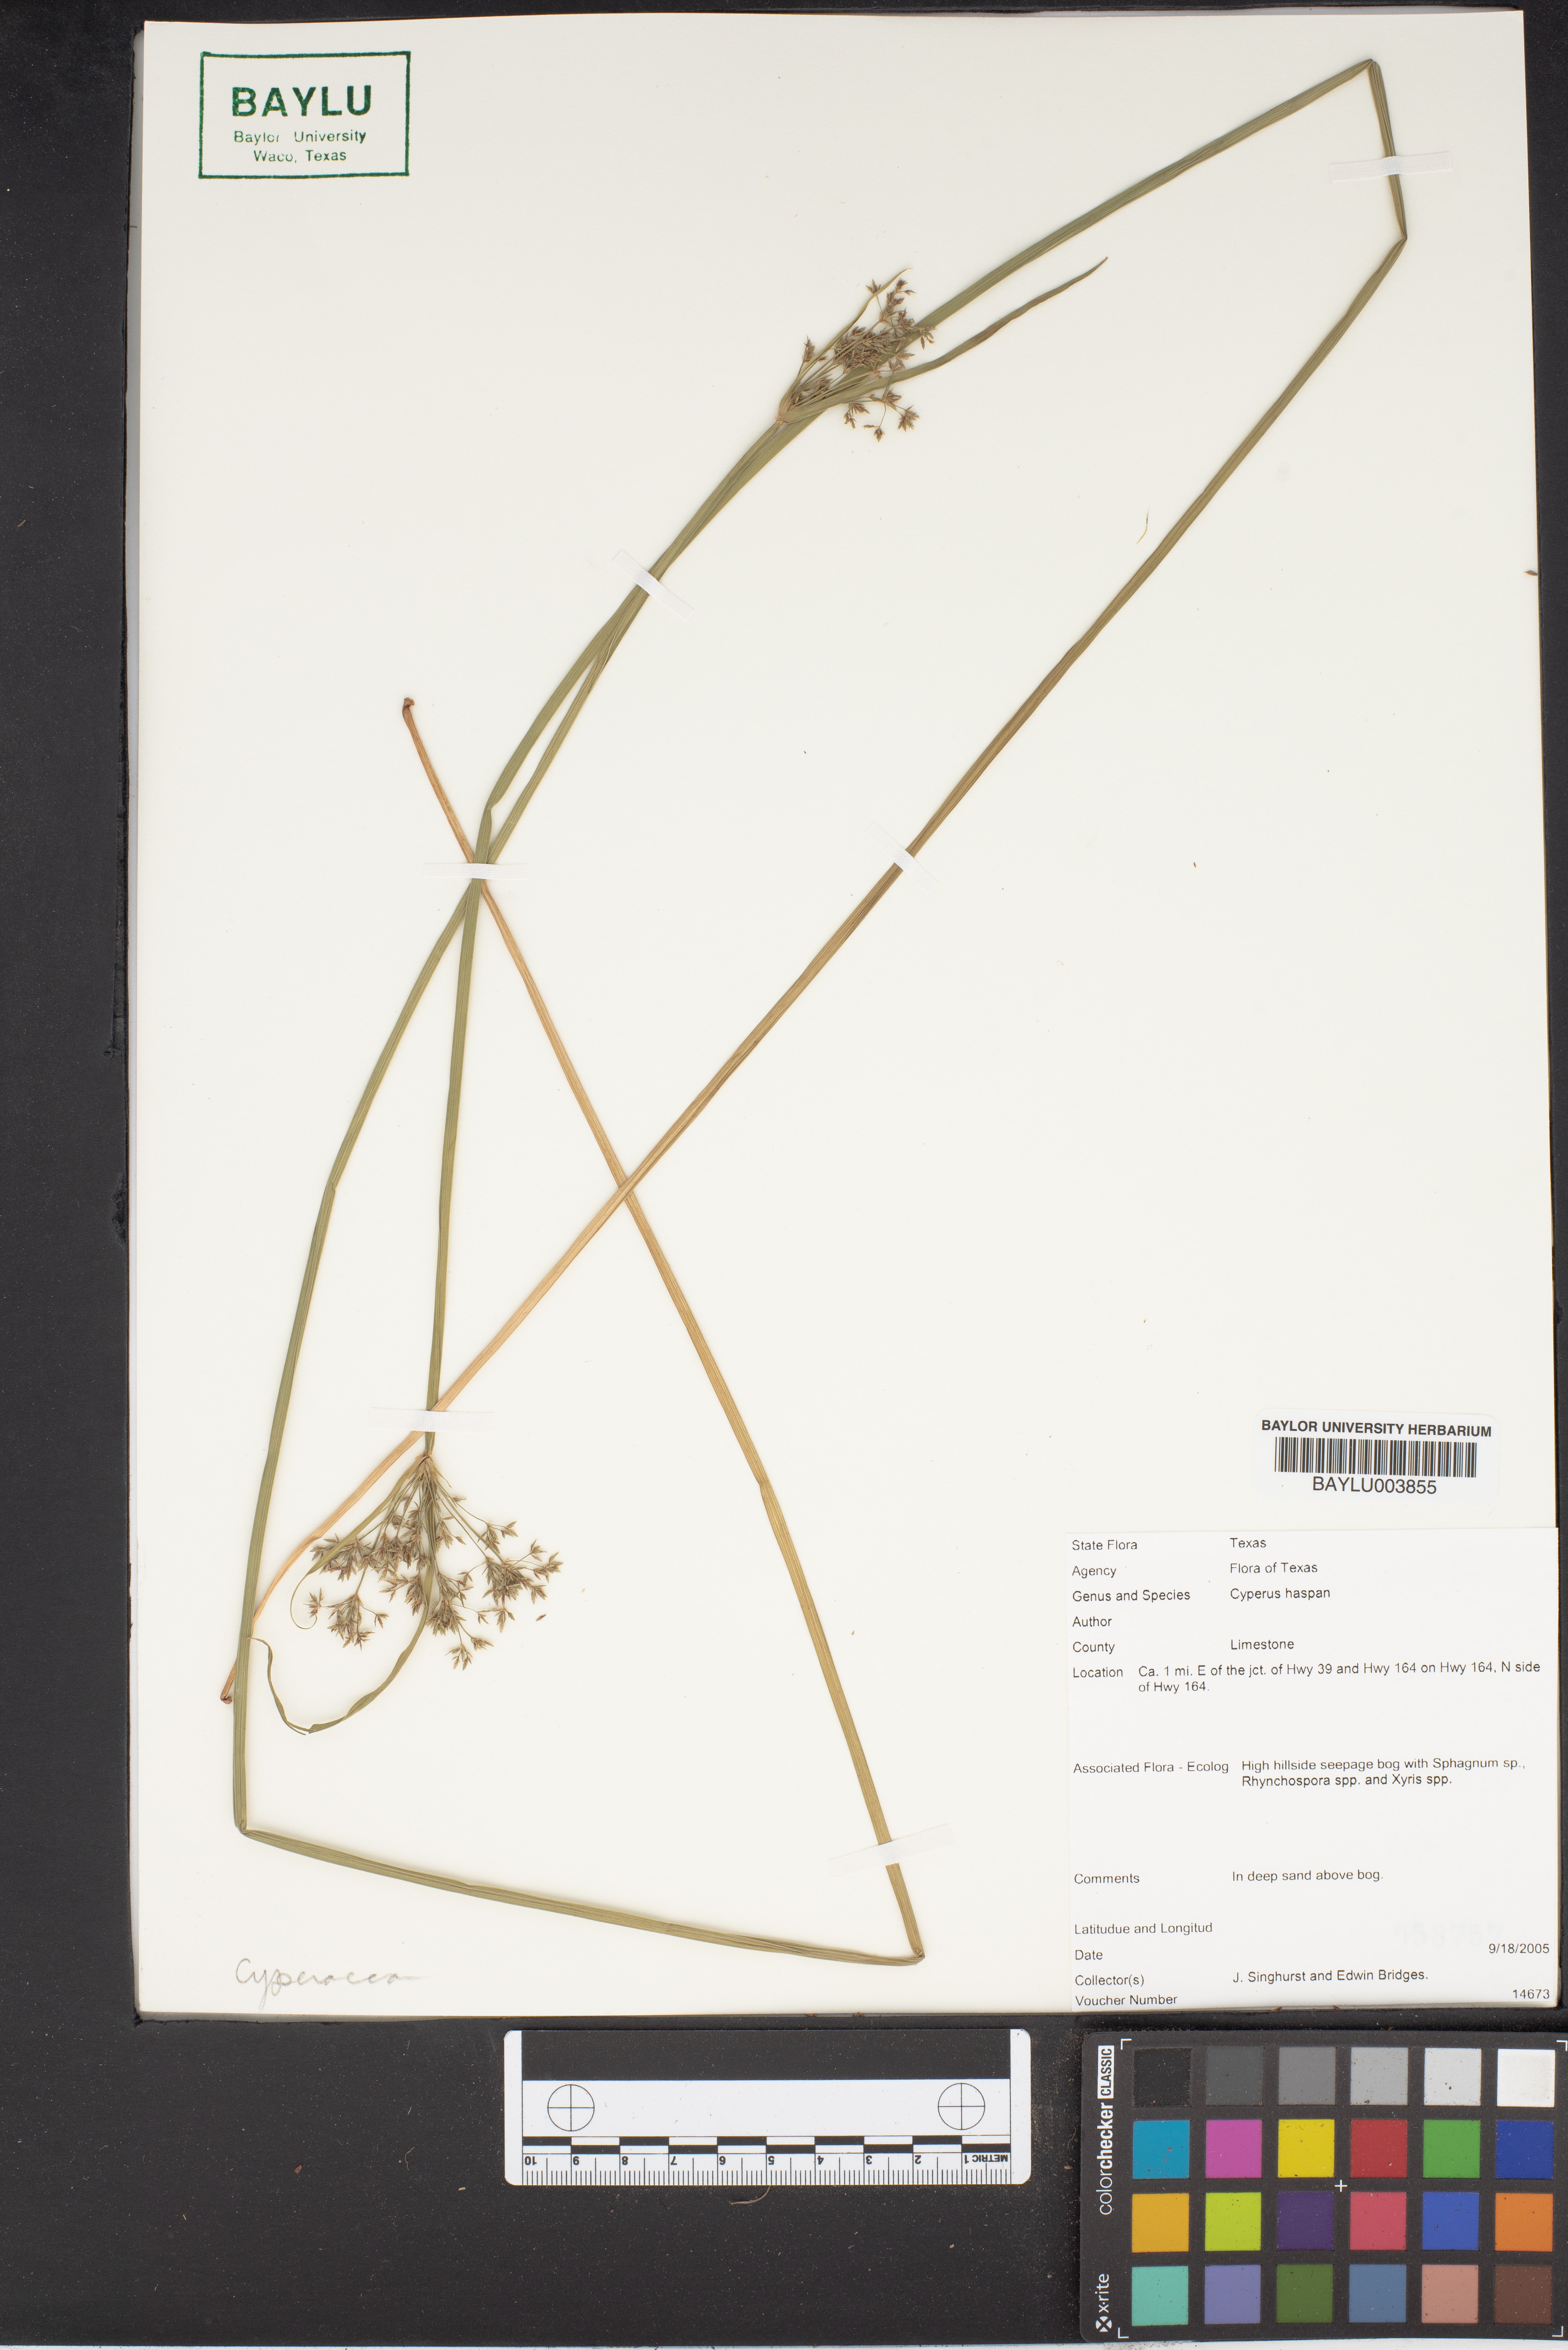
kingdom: Plantae
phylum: Tracheophyta
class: Liliopsida
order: Poales
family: Cyperaceae
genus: Cyperus
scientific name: Cyperus haspan
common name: Haspan flatsedge
